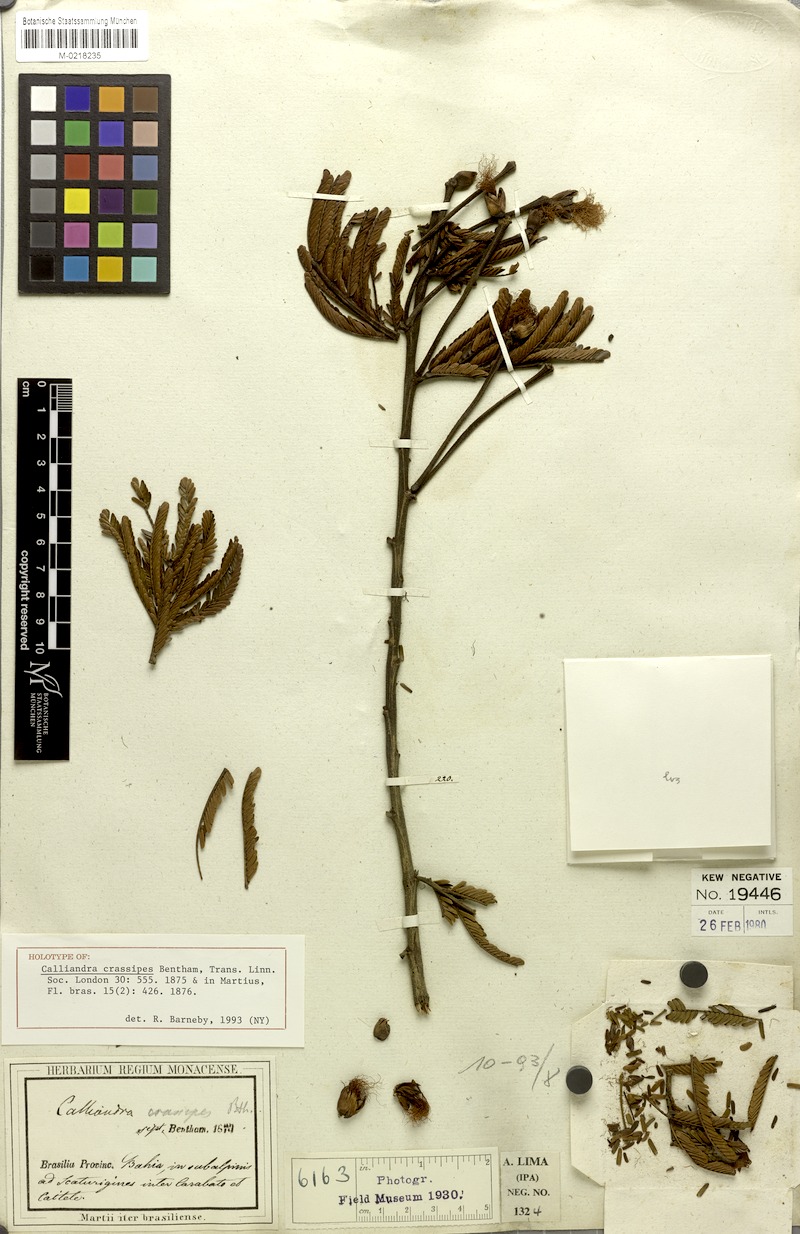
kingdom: Plantae
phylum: Tracheophyta
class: Magnoliopsida
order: Fabales
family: Fabaceae
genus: Calliandra
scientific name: Calliandra crassipes
